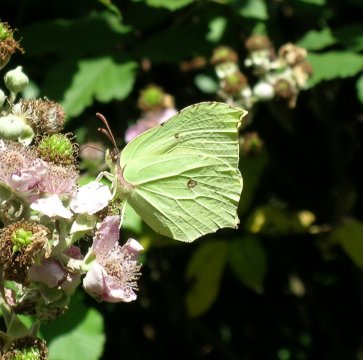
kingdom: Animalia
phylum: Arthropoda
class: Insecta
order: Lepidoptera
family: Pieridae
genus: Gonepteryx
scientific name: Gonepteryx rhamni
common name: Common Brimstone
